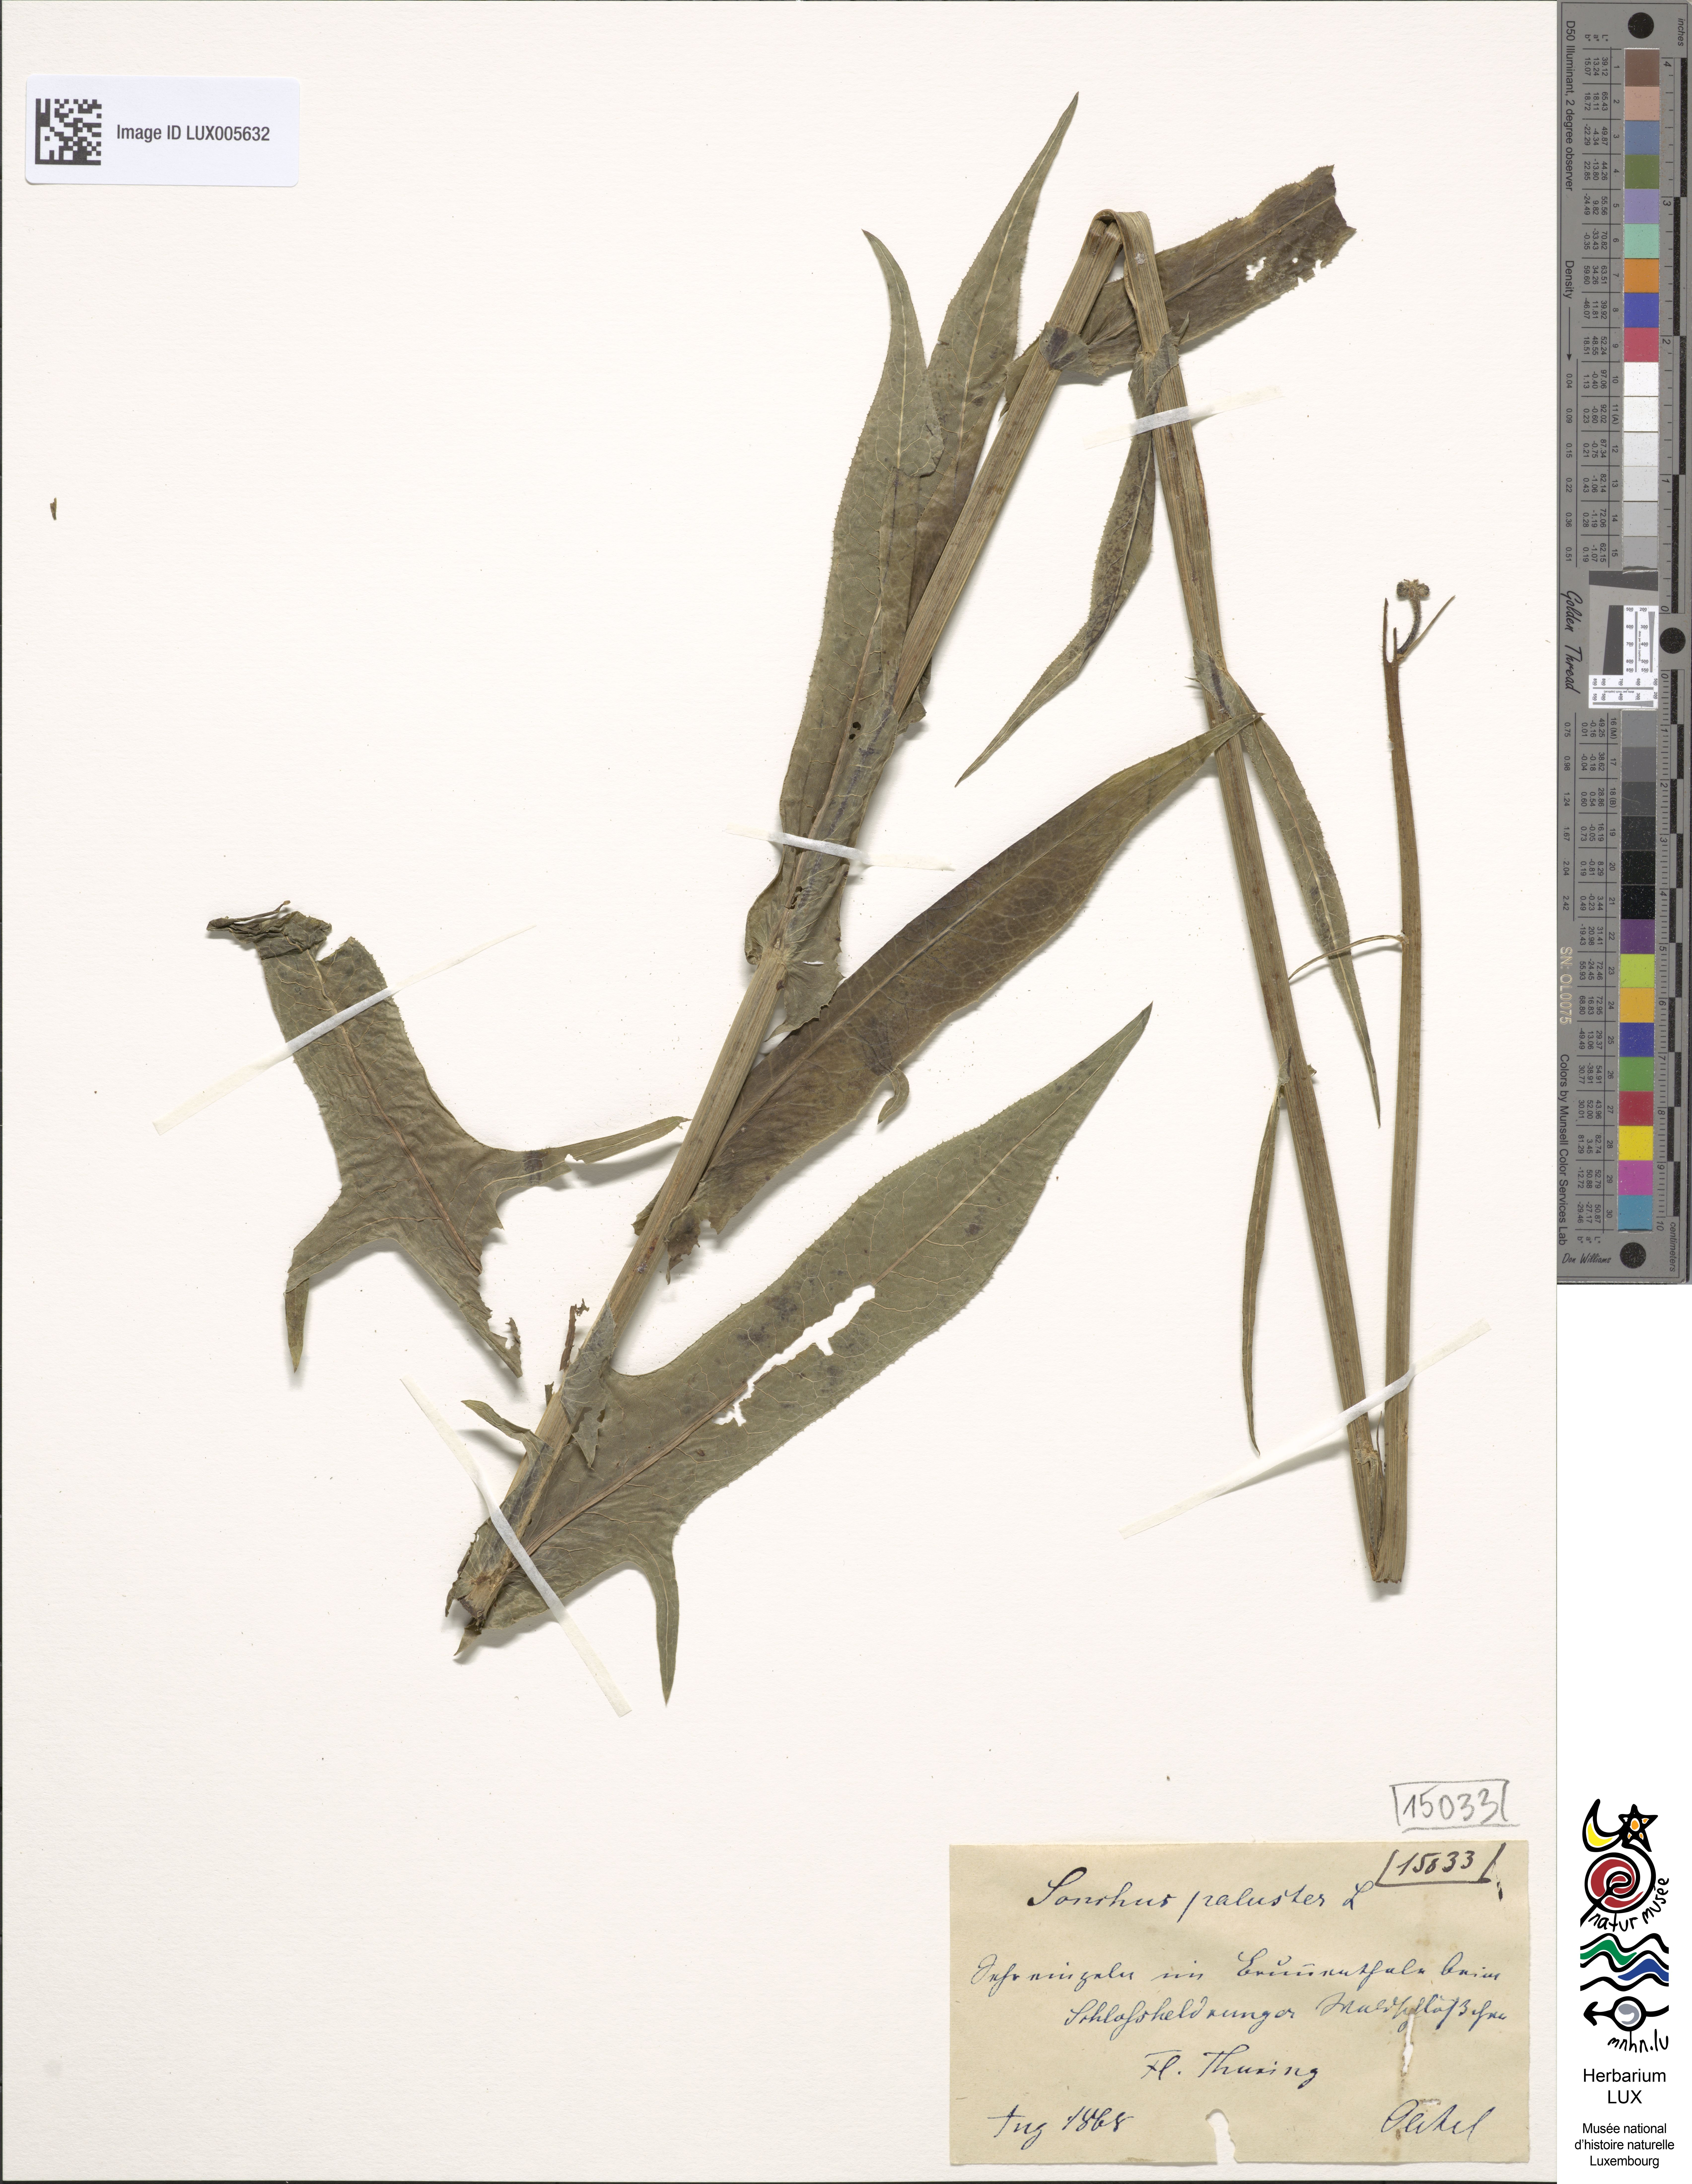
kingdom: Plantae
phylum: Tracheophyta
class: Magnoliopsida
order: Asterales
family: Asteraceae
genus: Sonchus
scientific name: Sonchus palustris
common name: Marsh sow-thistle
